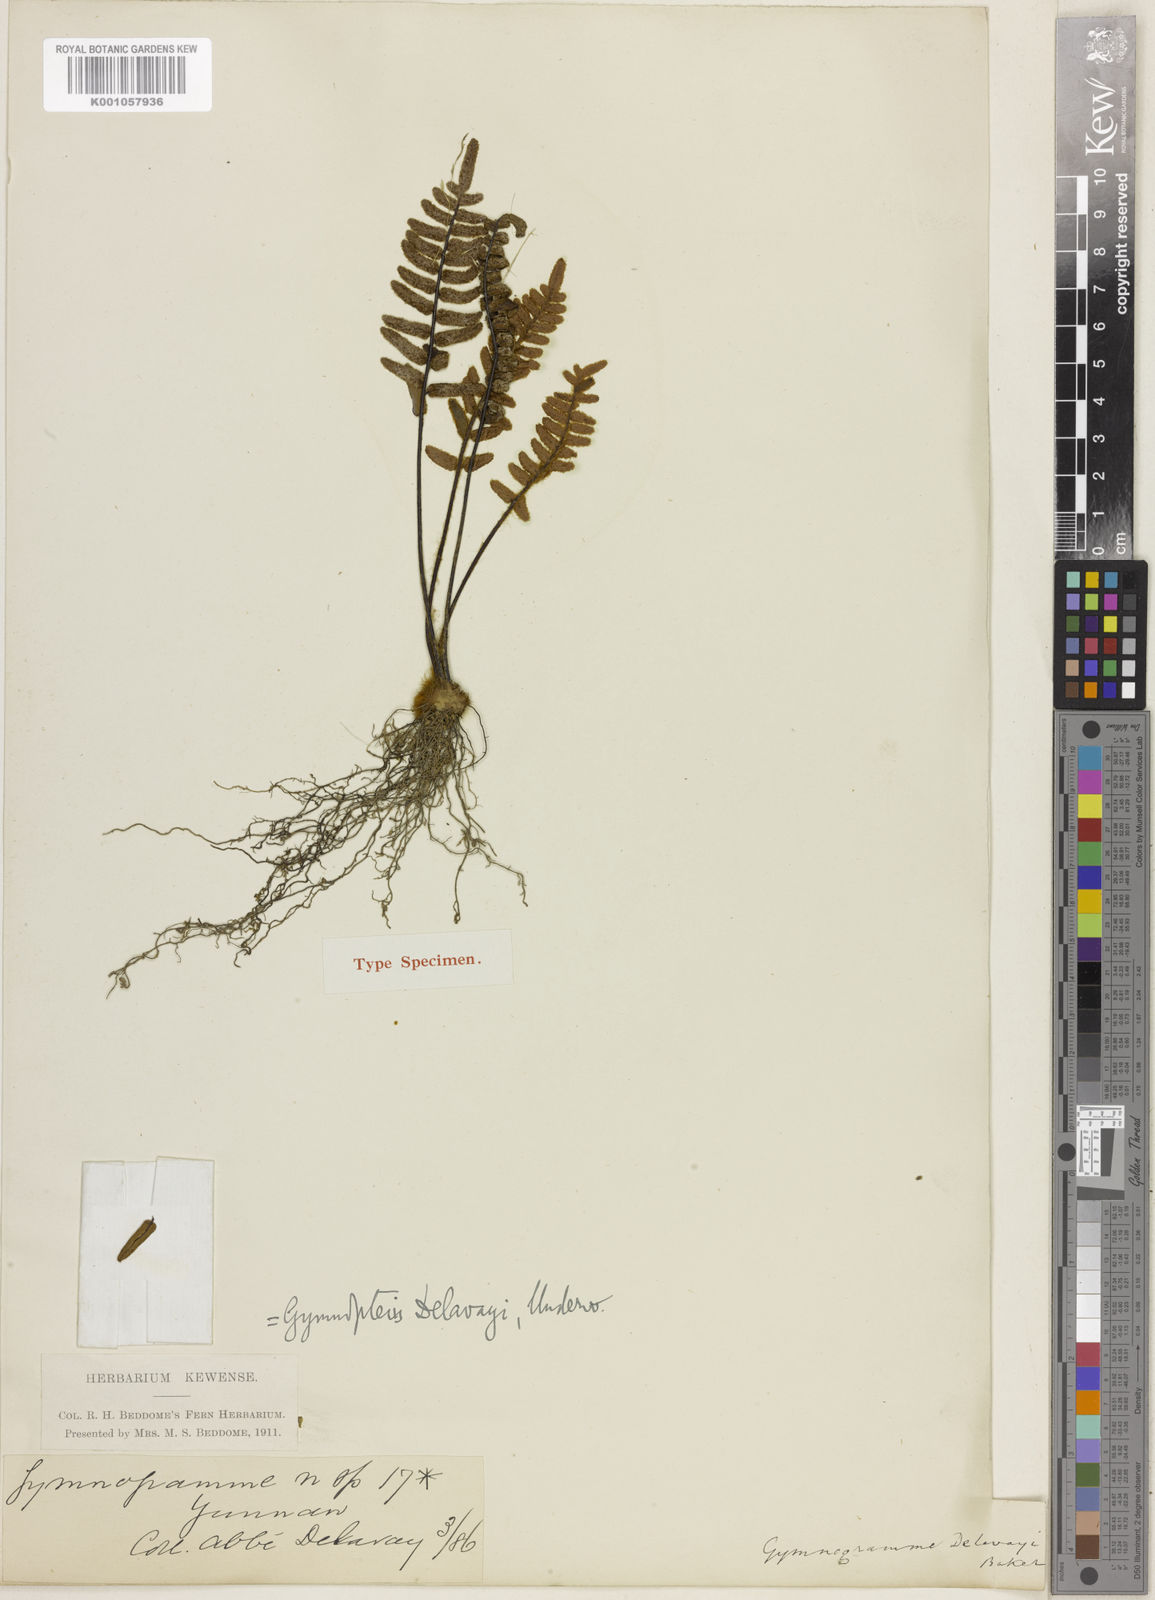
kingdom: Plantae
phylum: Tracheophyta
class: Polypodiopsida
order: Polypodiales
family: Pteridaceae
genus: Paragymnopteris
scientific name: Paragymnopteris delavayi
